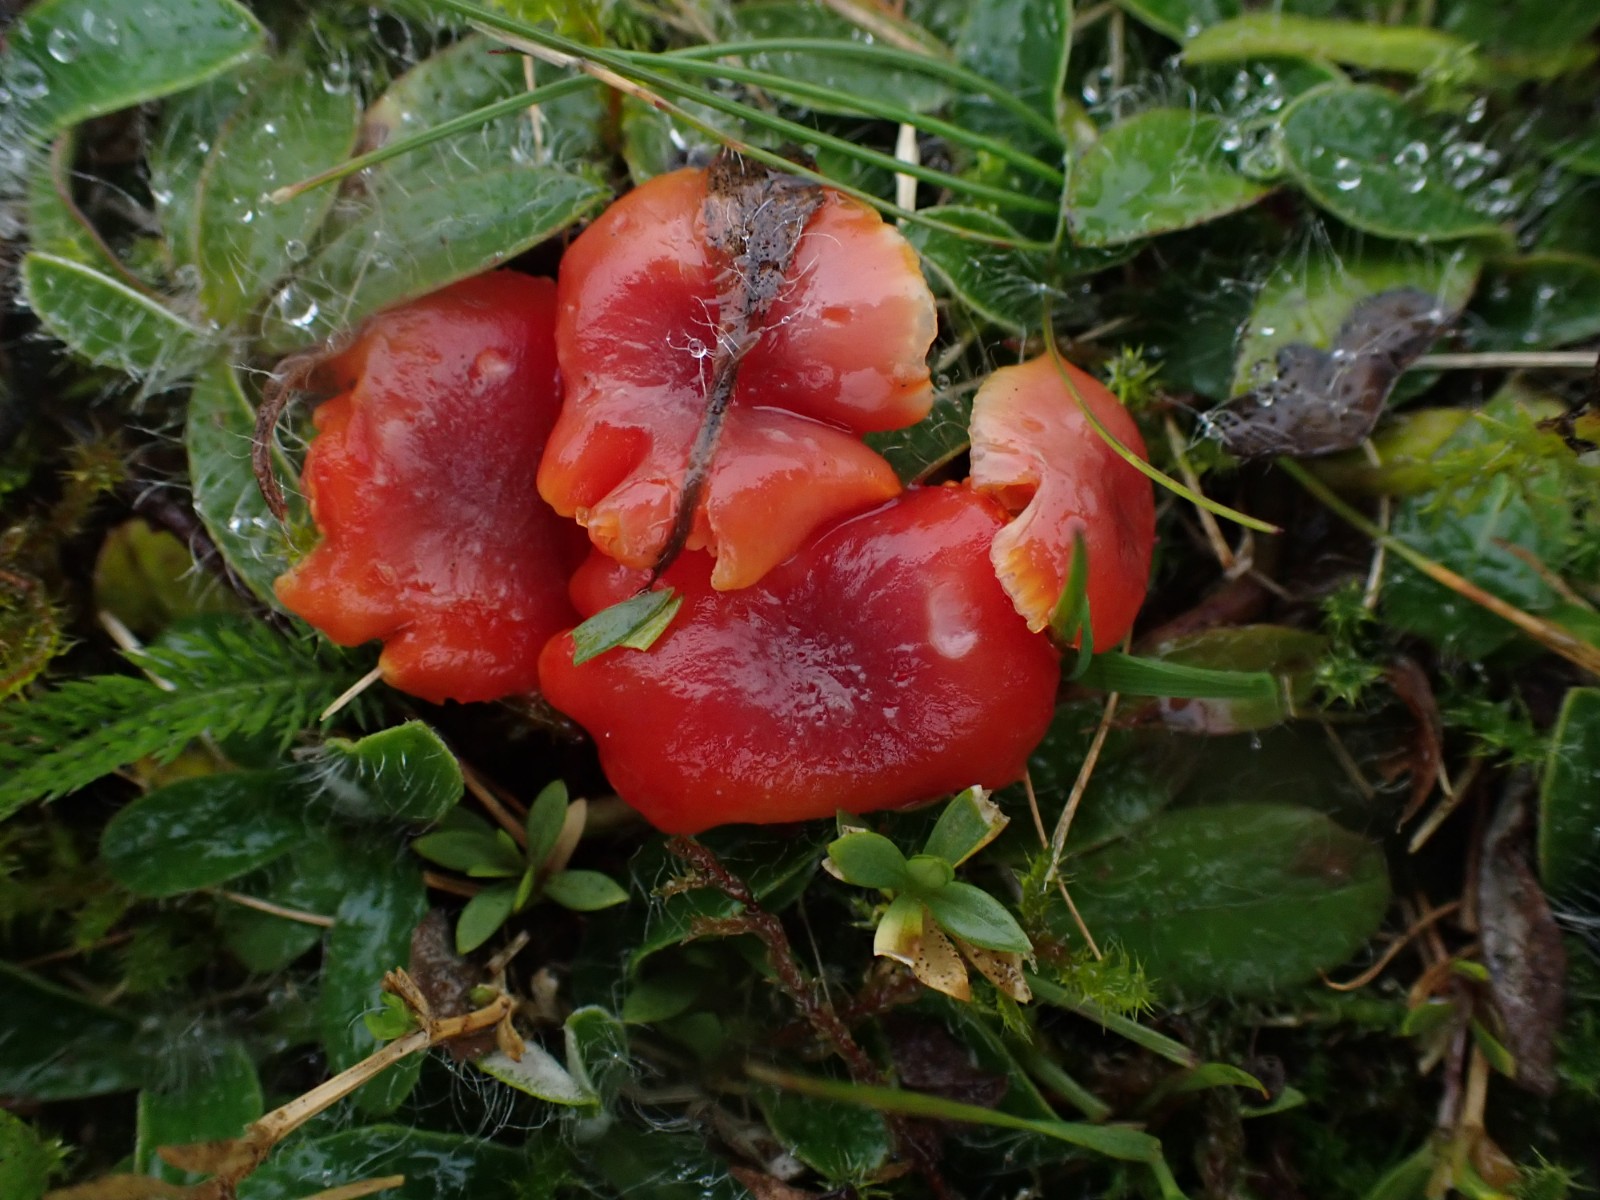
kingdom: Fungi
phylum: Basidiomycota
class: Agaricomycetes
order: Agaricales
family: Hygrophoraceae
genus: Hygrocybe
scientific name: Hygrocybe phaeococcinea
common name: sortdugget vokshat
